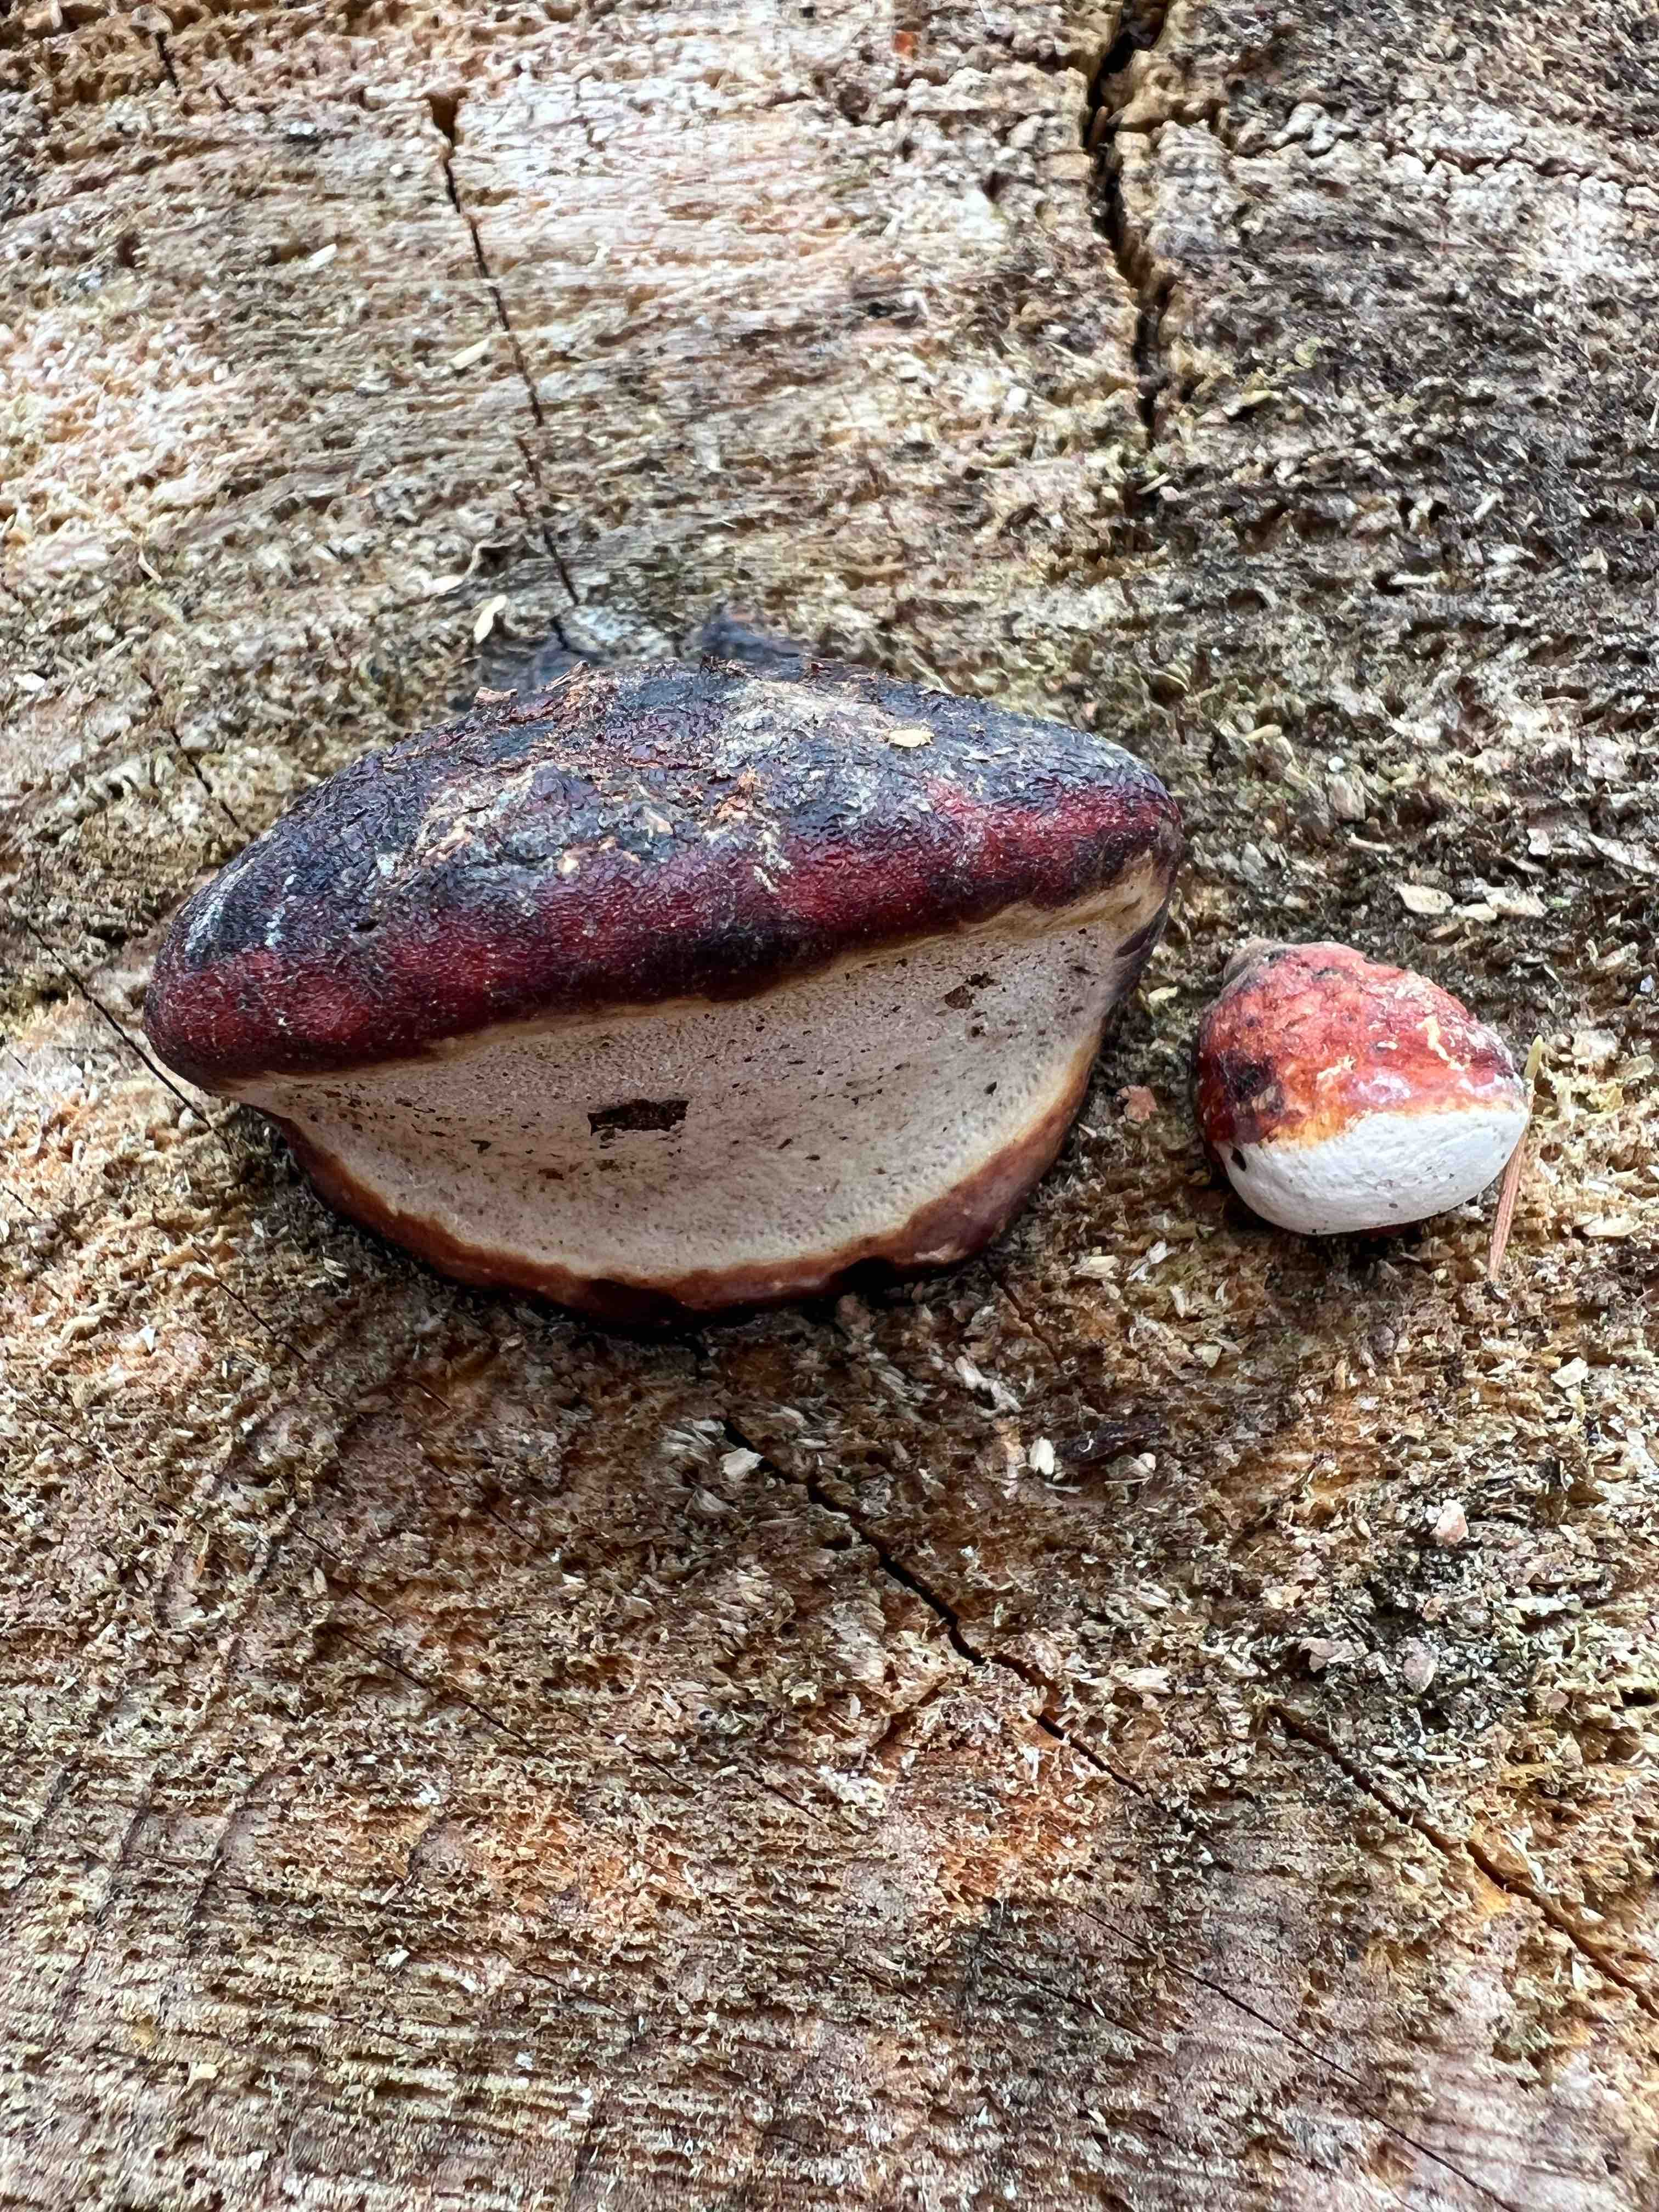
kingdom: Fungi
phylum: Basidiomycota
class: Agaricomycetes
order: Polyporales
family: Fomitopsidaceae
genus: Fomitopsis
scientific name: Fomitopsis pinicola
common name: randbæltet hovporesvamp
